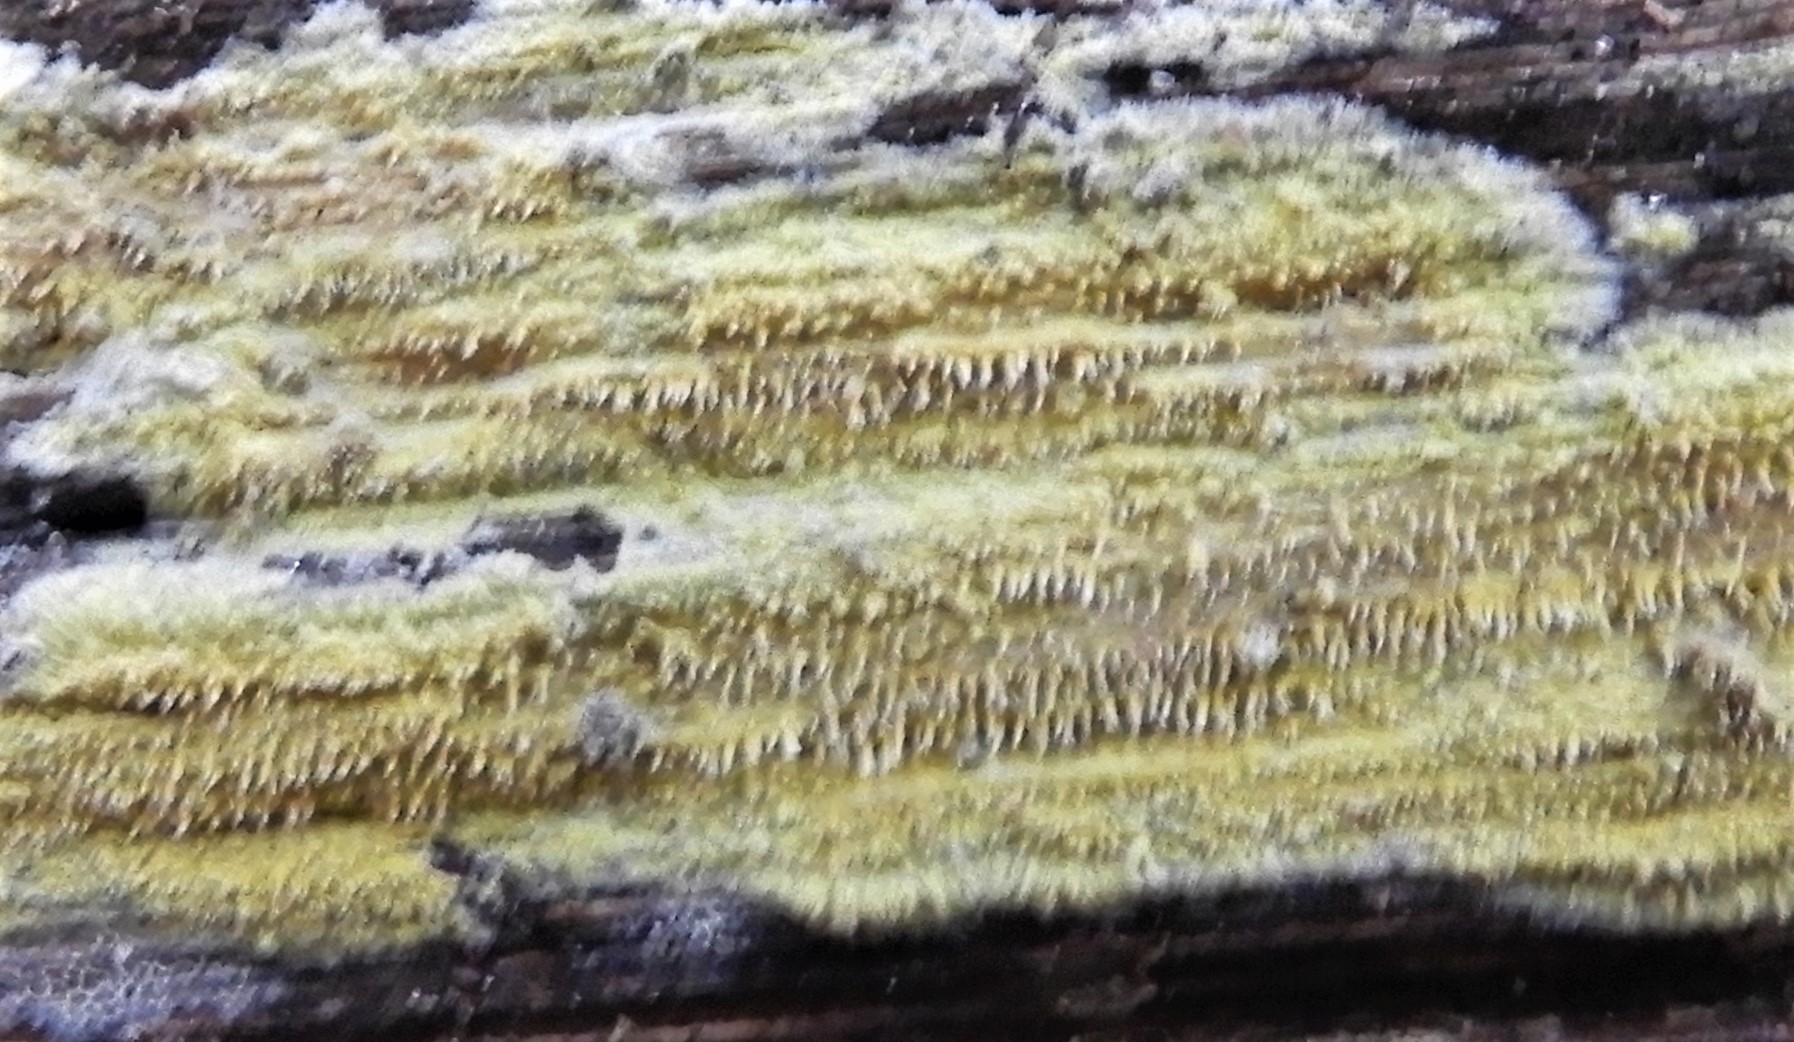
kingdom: Fungi
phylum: Basidiomycota
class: Agaricomycetes
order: Polyporales
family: Meruliaceae
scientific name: Meruliaceae
